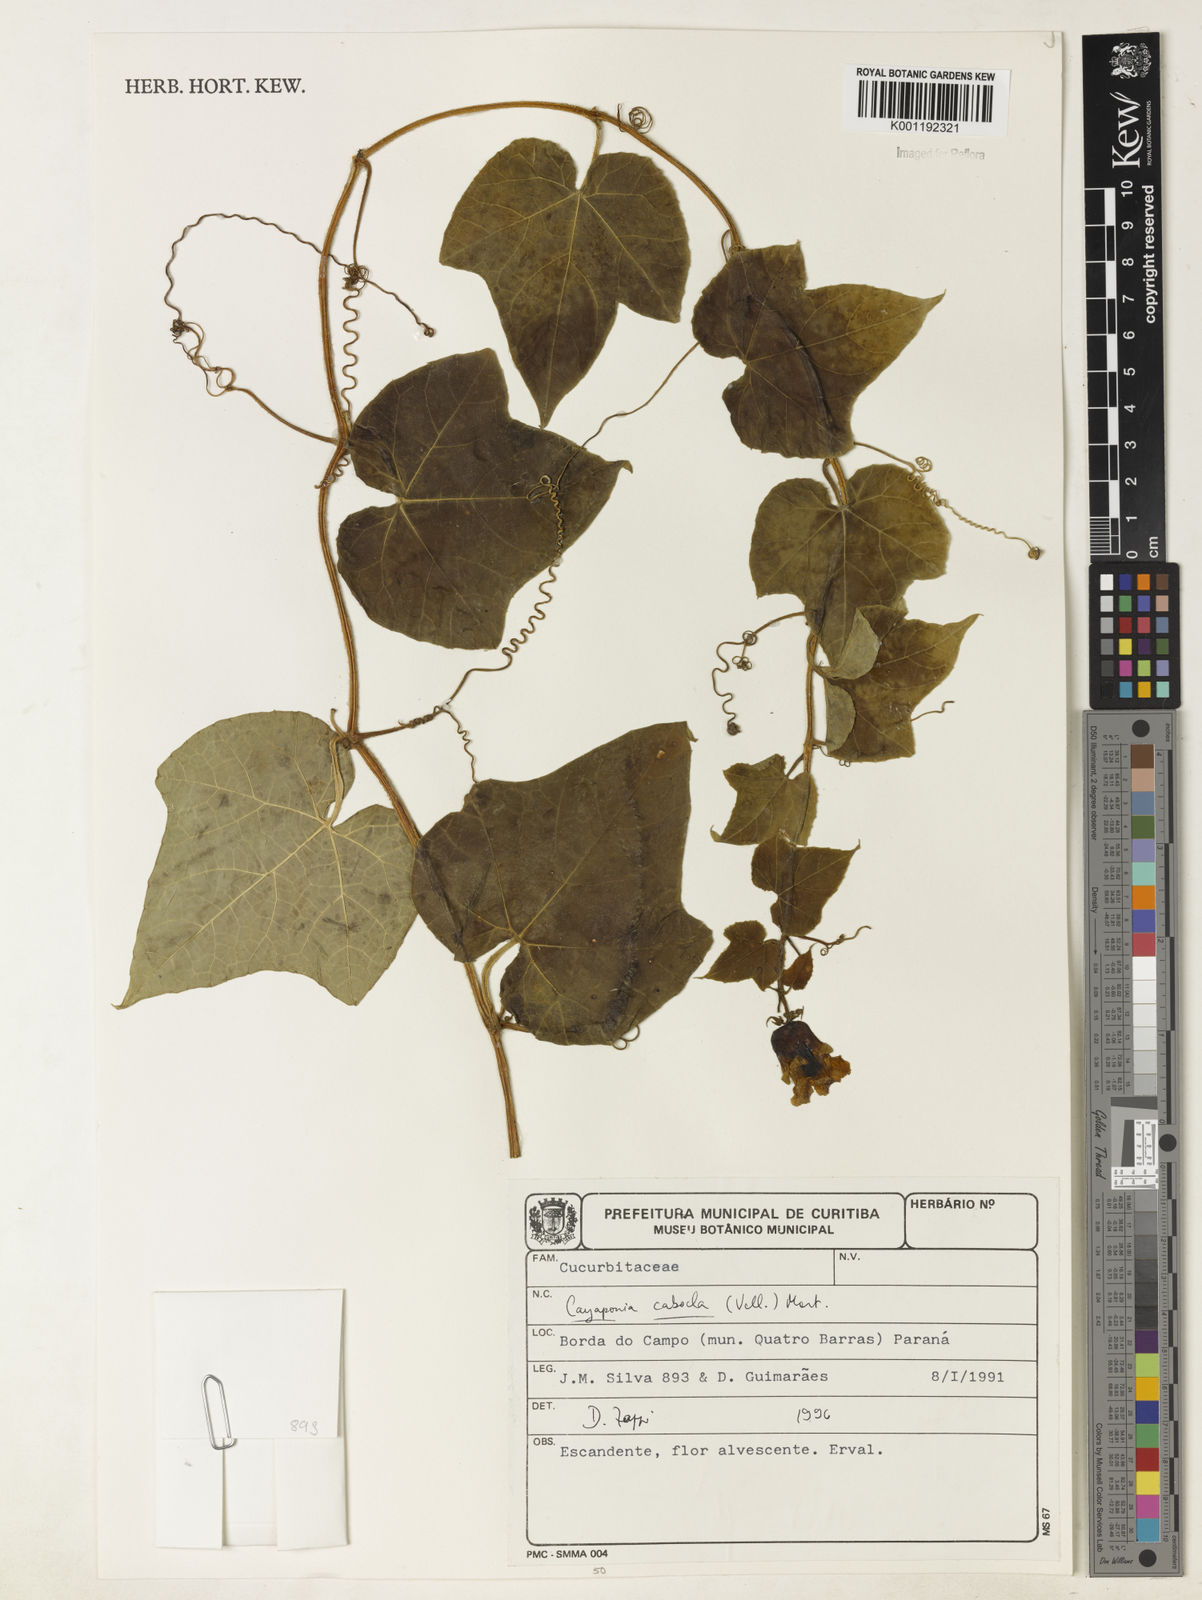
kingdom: Plantae
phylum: Tracheophyta
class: Magnoliopsida
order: Cucurbitales
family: Cucurbitaceae
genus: Cayaponia
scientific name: Cayaponia cabocla
